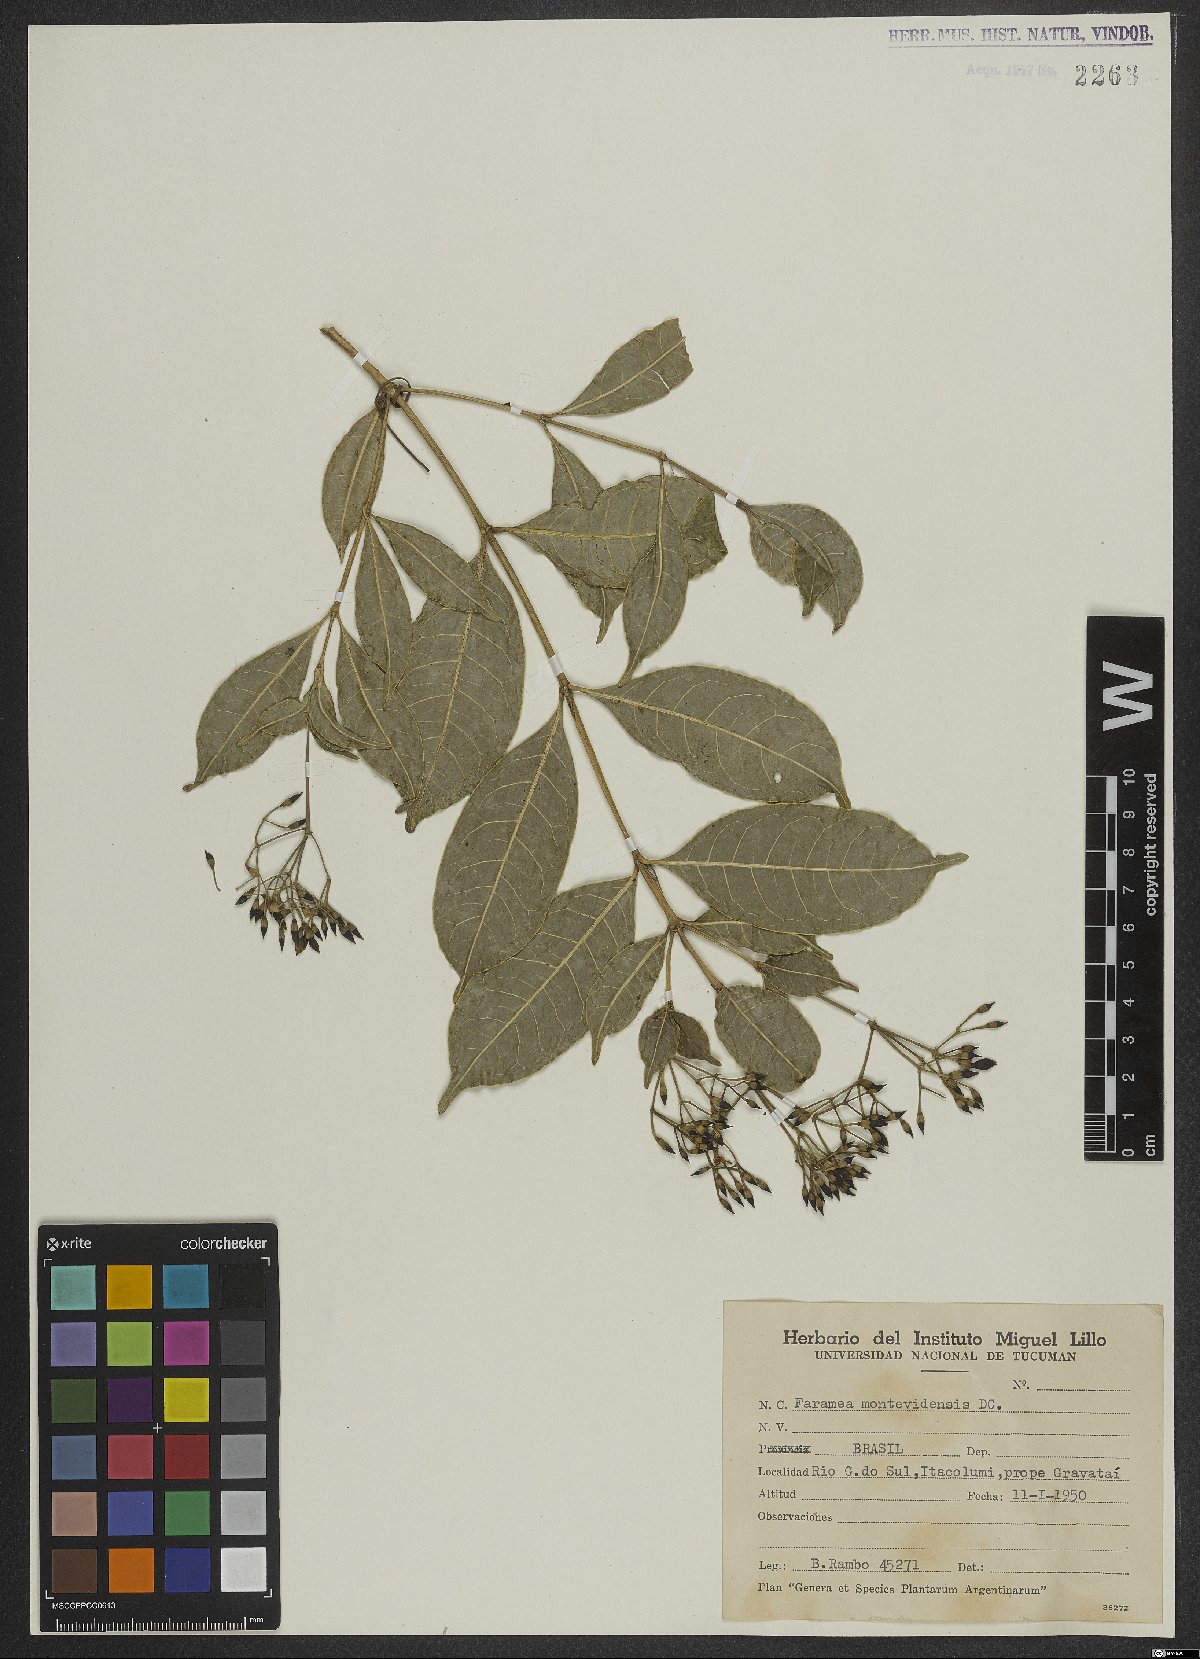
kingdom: Plantae
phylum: Tracheophyta
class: Magnoliopsida
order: Gentianales
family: Rubiaceae
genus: Faramea
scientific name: Faramea montevidensis
